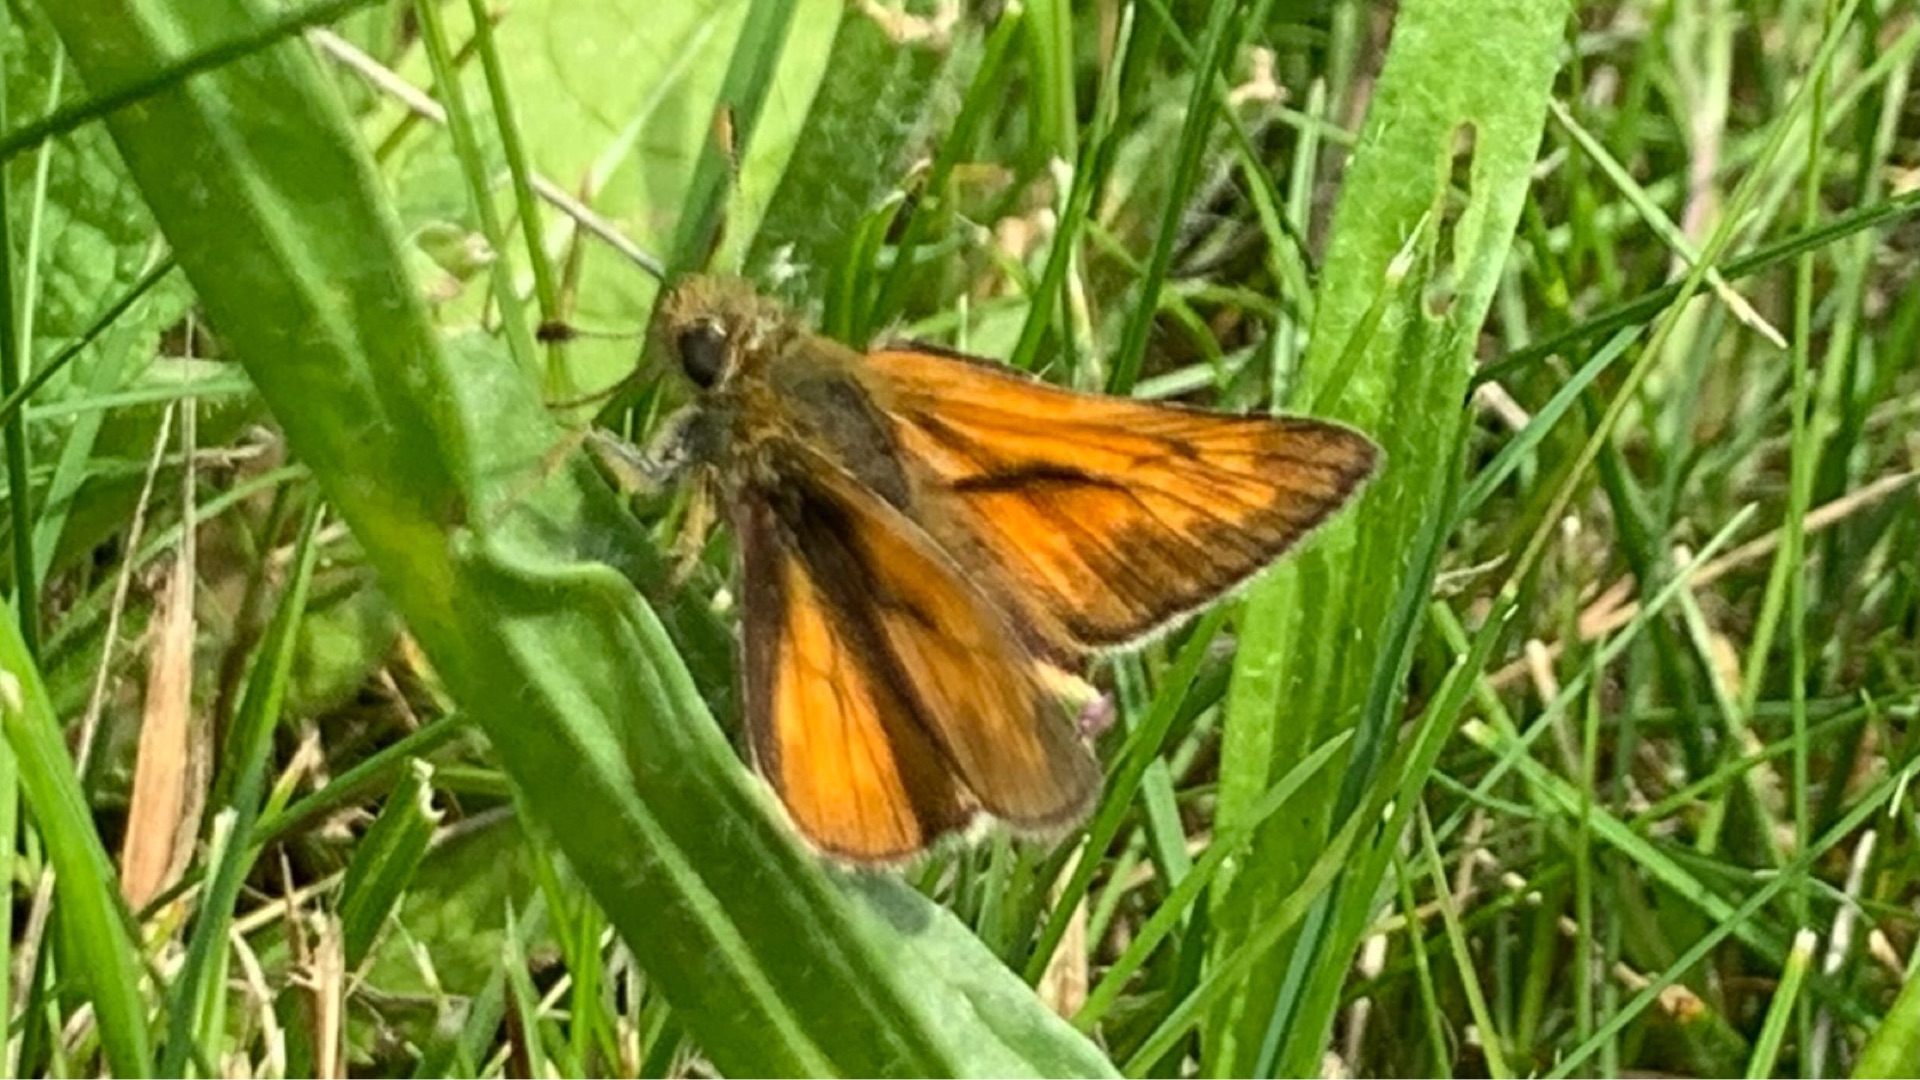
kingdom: Animalia
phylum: Arthropoda
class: Insecta
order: Lepidoptera
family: Hesperiidae
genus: Ochlodes
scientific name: Ochlodes venata
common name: Stor bredpande
